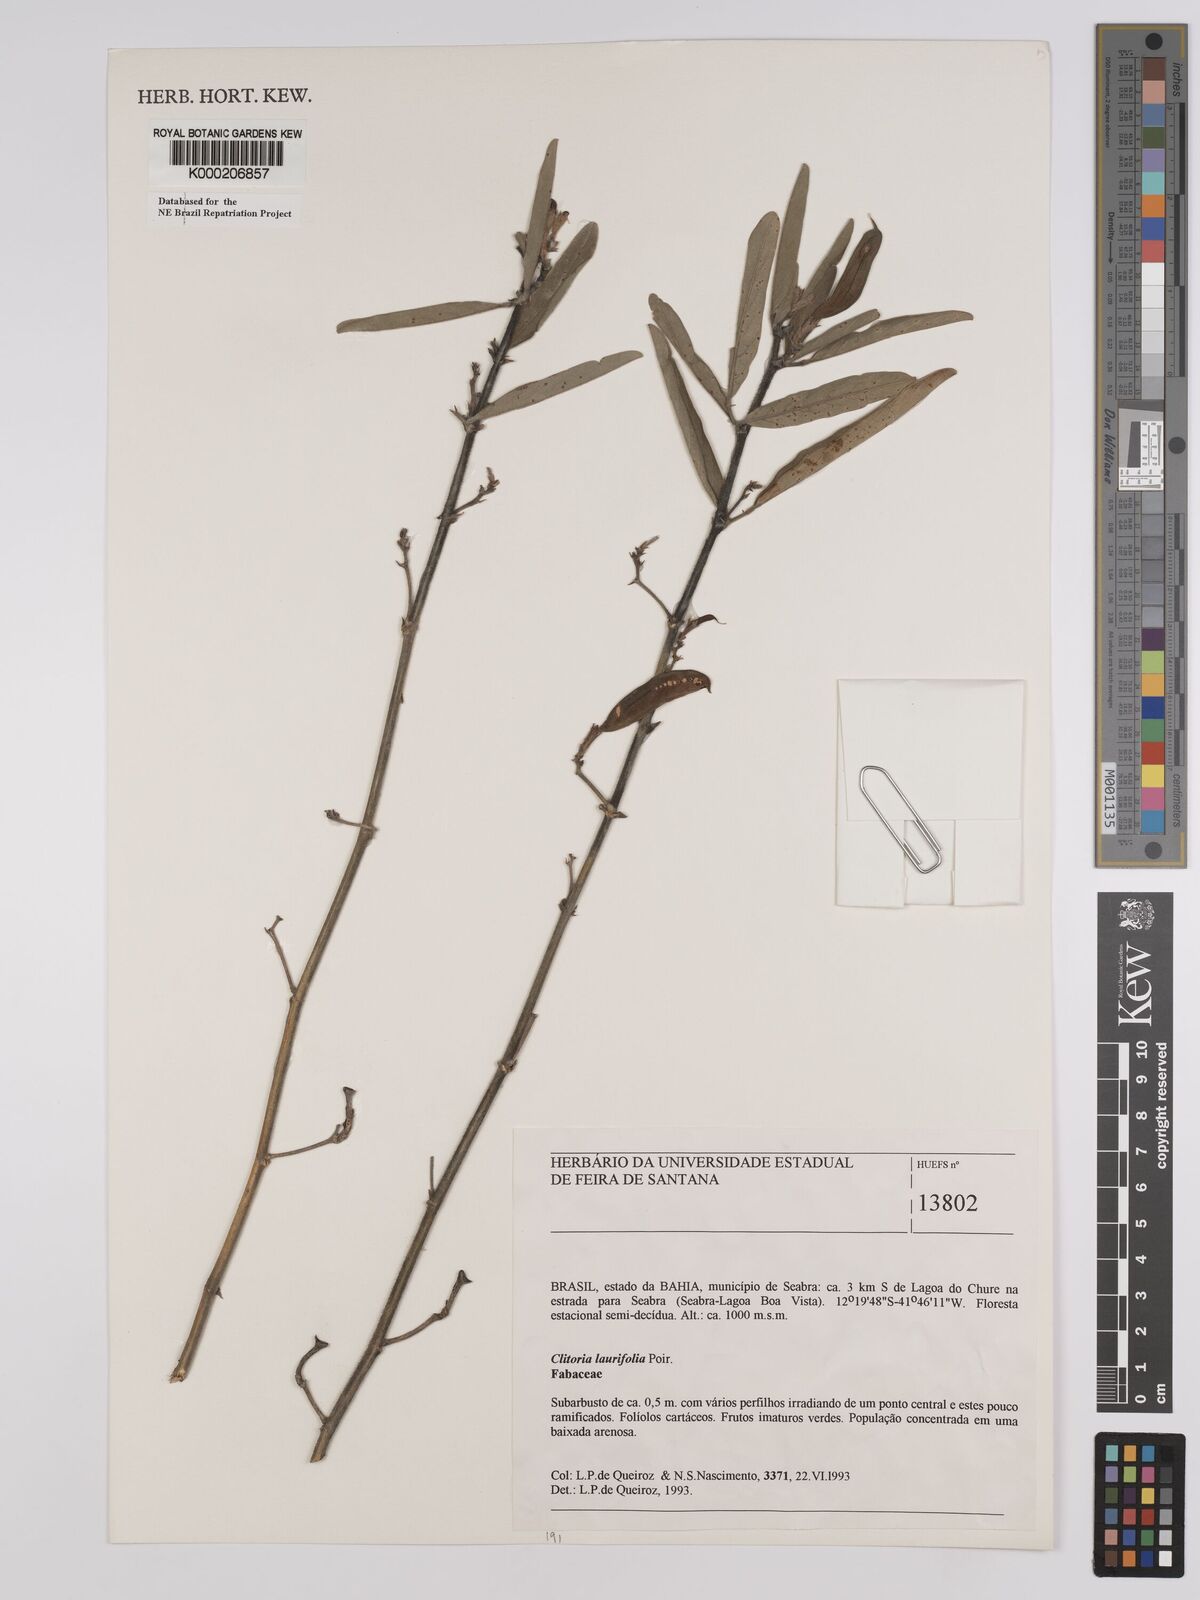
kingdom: Plantae
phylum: Tracheophyta
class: Magnoliopsida
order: Fabales
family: Fabaceae
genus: Clitoria
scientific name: Clitoria laurifolia
